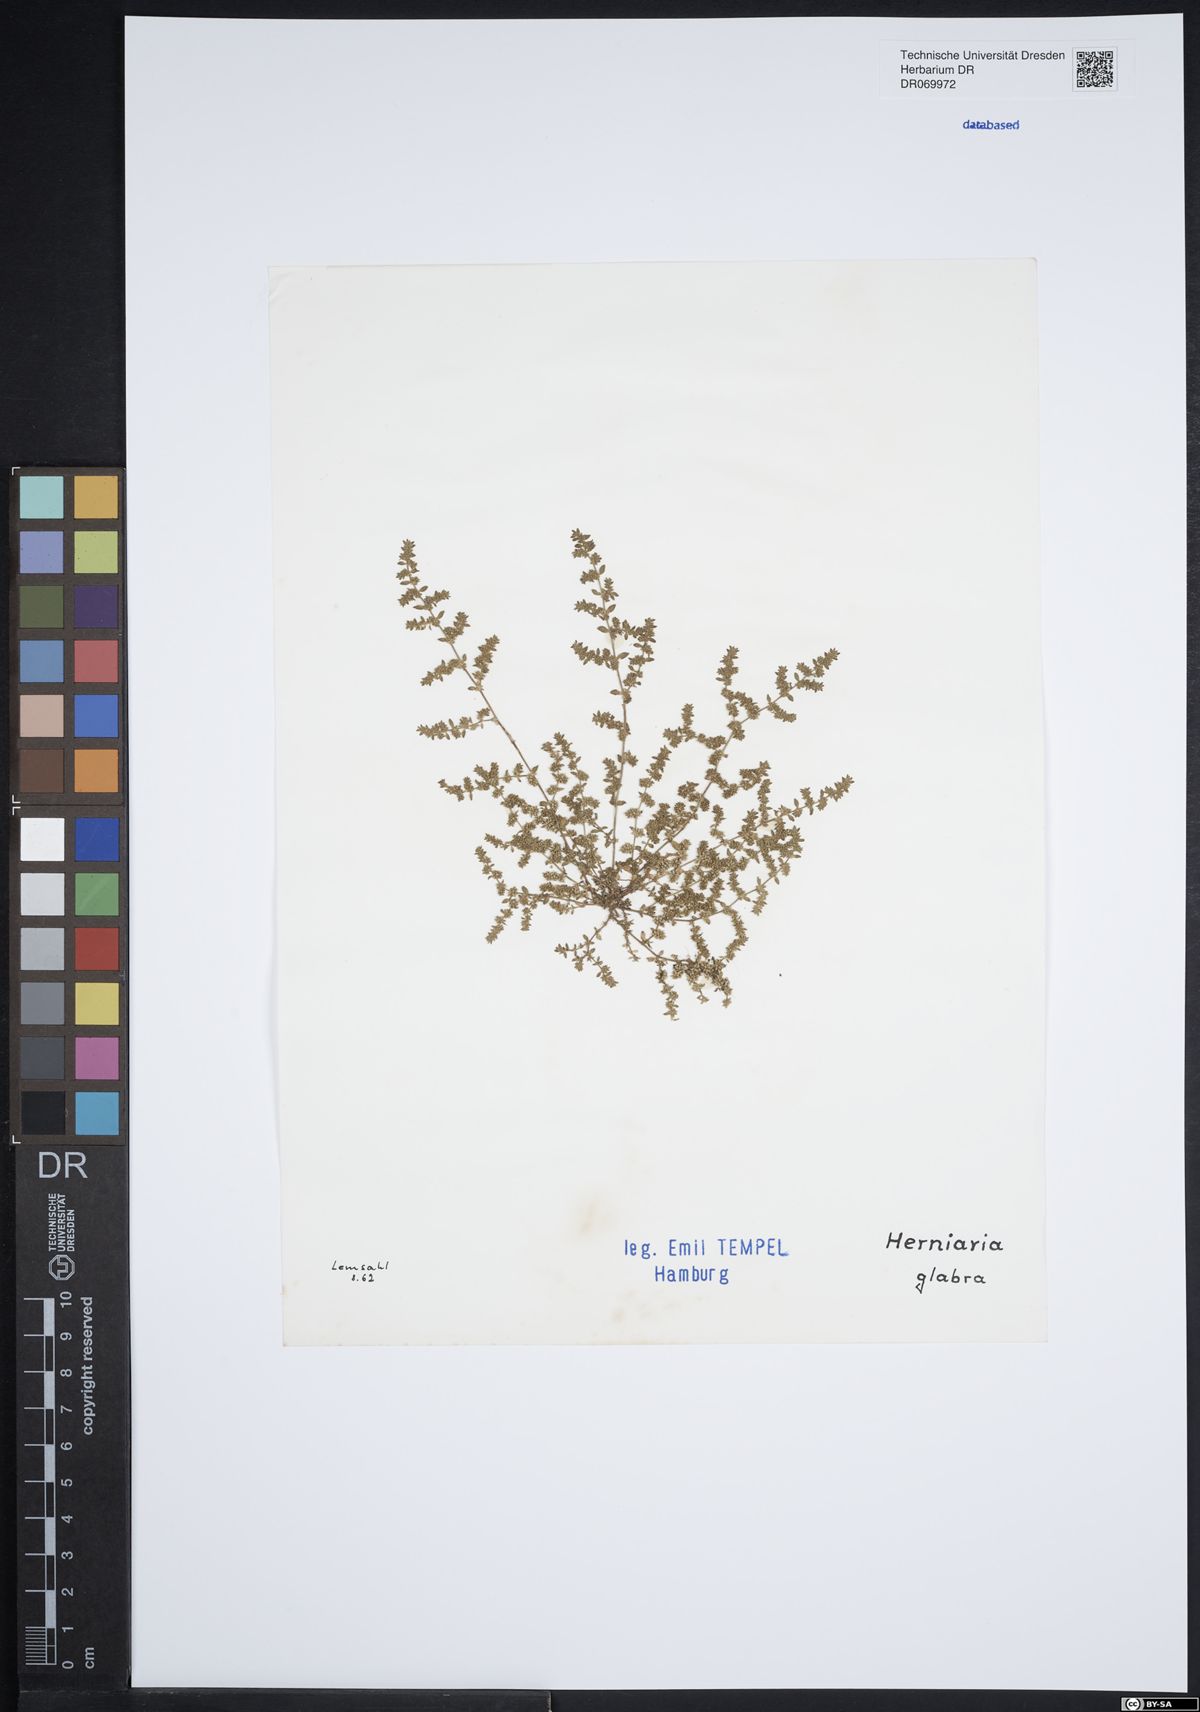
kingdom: Plantae
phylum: Tracheophyta
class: Magnoliopsida
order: Caryophyllales
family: Caryophyllaceae
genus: Herniaria
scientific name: Herniaria glabra
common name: Smooth rupturewort
